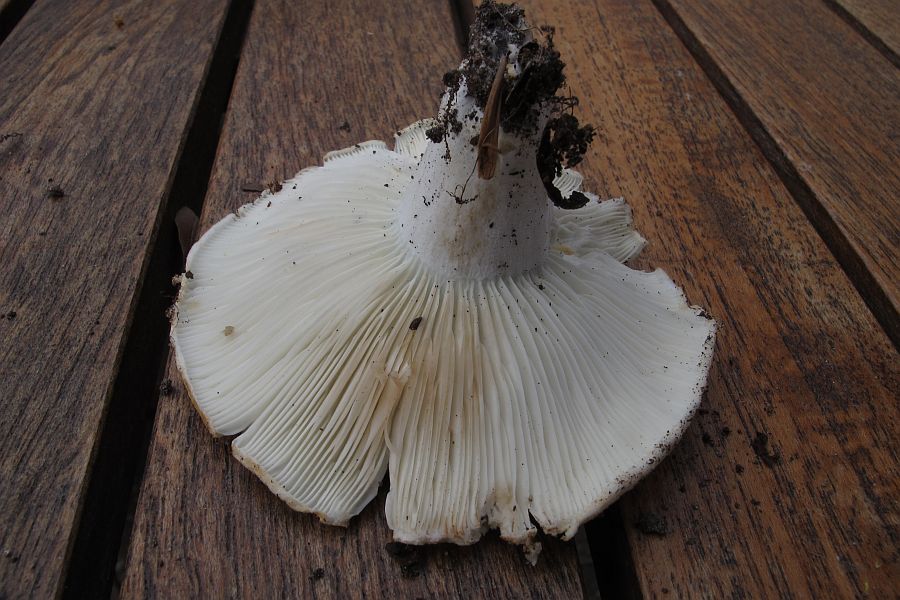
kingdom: Fungi
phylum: Basidiomycota
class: Agaricomycetes
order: Russulales
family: Russulaceae
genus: Russula
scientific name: Russula chloroides
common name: grønhalset tragt-skørhat
